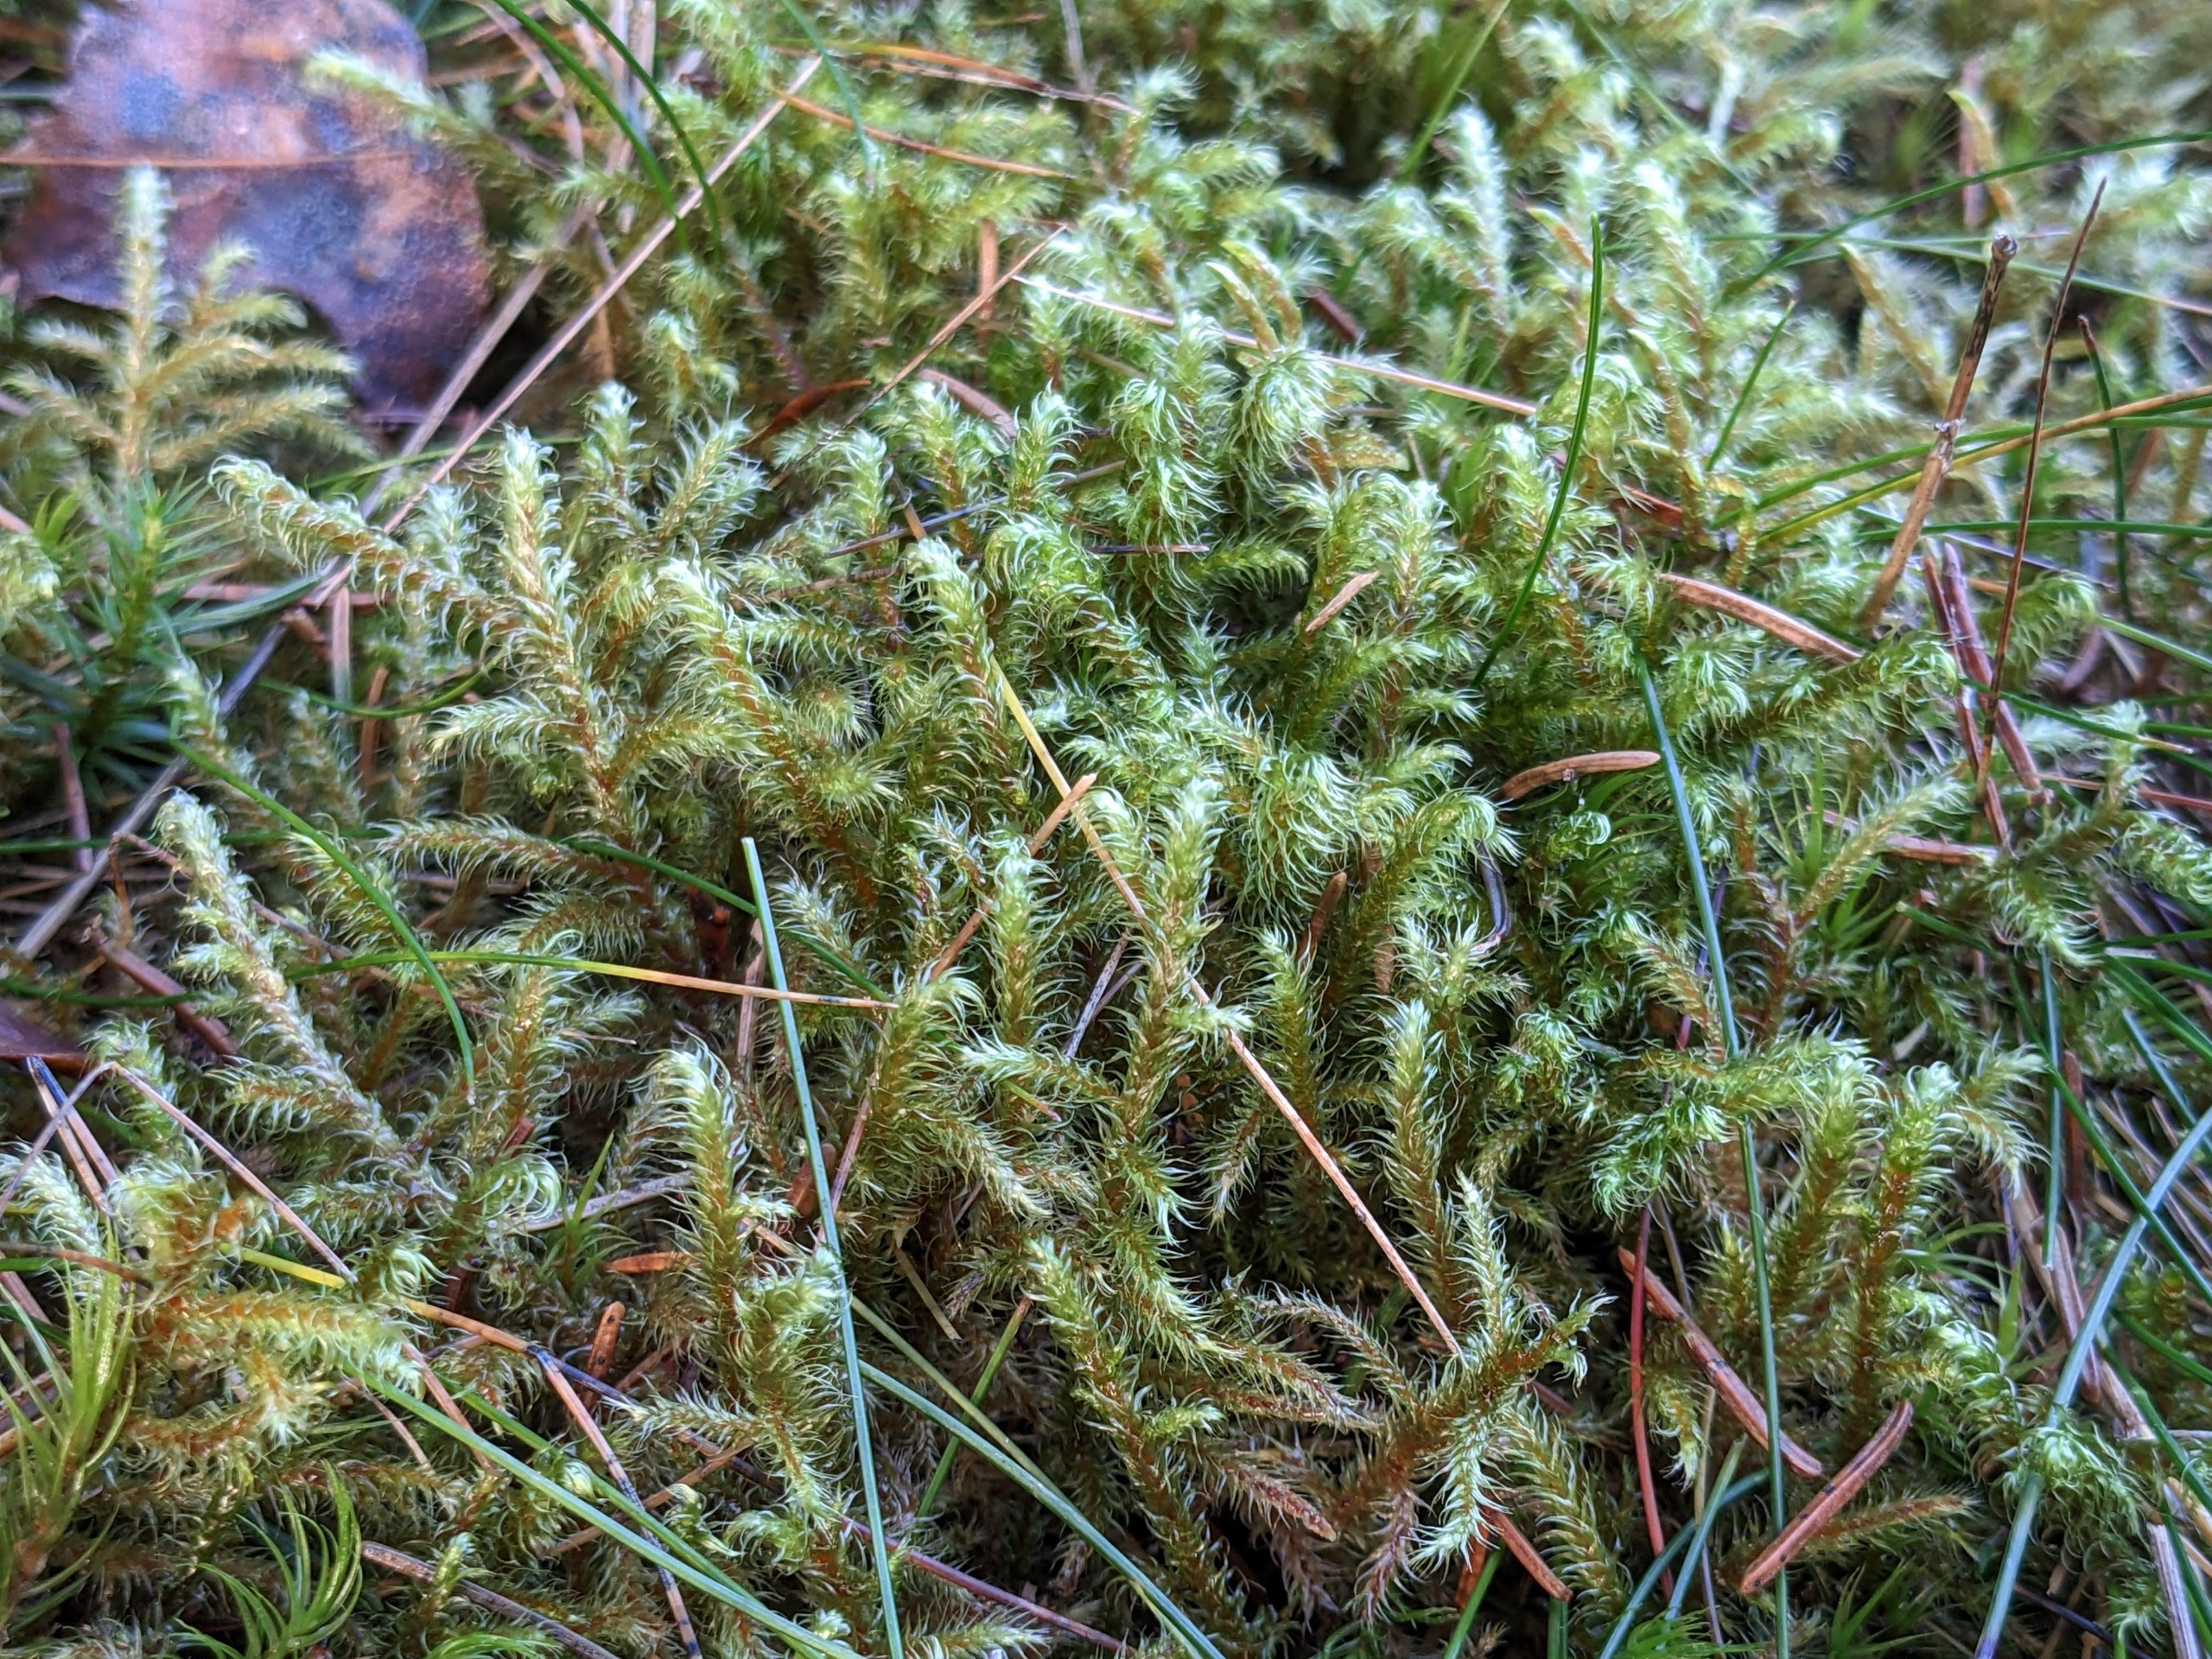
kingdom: Plantae
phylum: Bryophyta
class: Bryopsida
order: Hypnales
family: Hylocomiaceae
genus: Rhytidiadelphus
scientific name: Rhytidiadelphus loreus
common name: Ulvefod-kransemos
